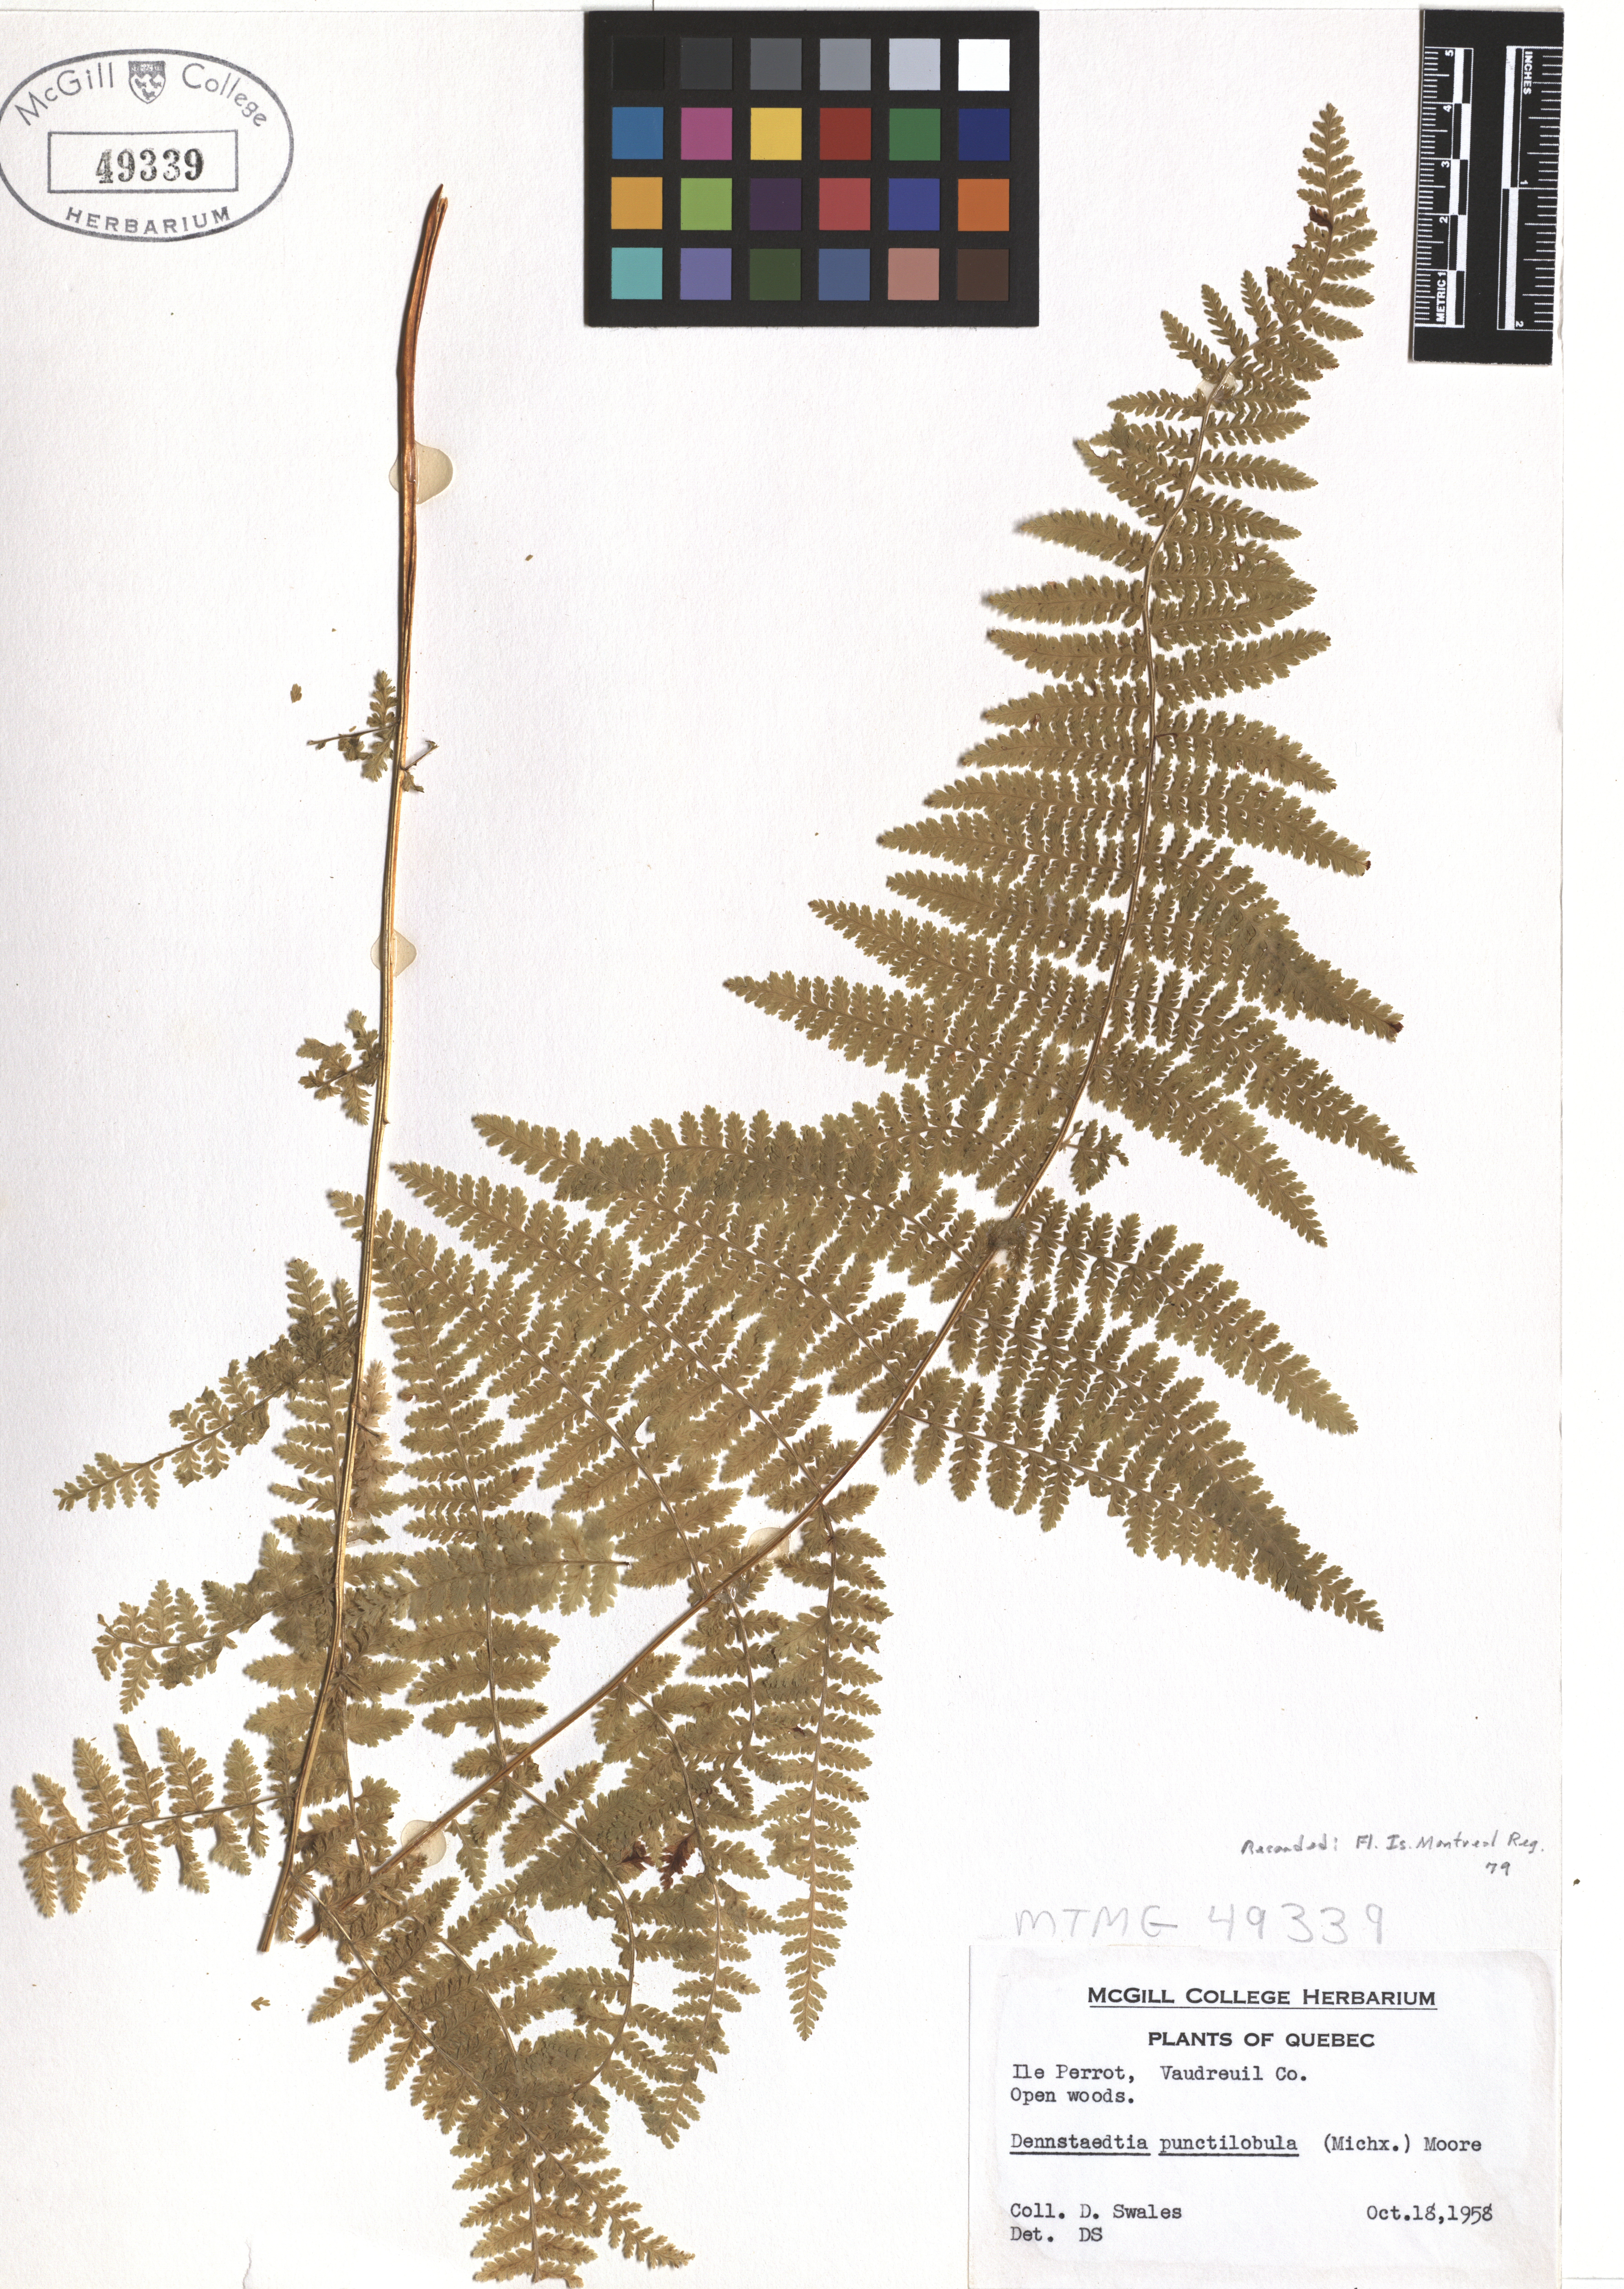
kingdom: Plantae
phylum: Tracheophyta
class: Polypodiopsida
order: Polypodiales
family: Dennstaedtiaceae
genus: Sitobolium
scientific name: Sitobolium punctilobum
